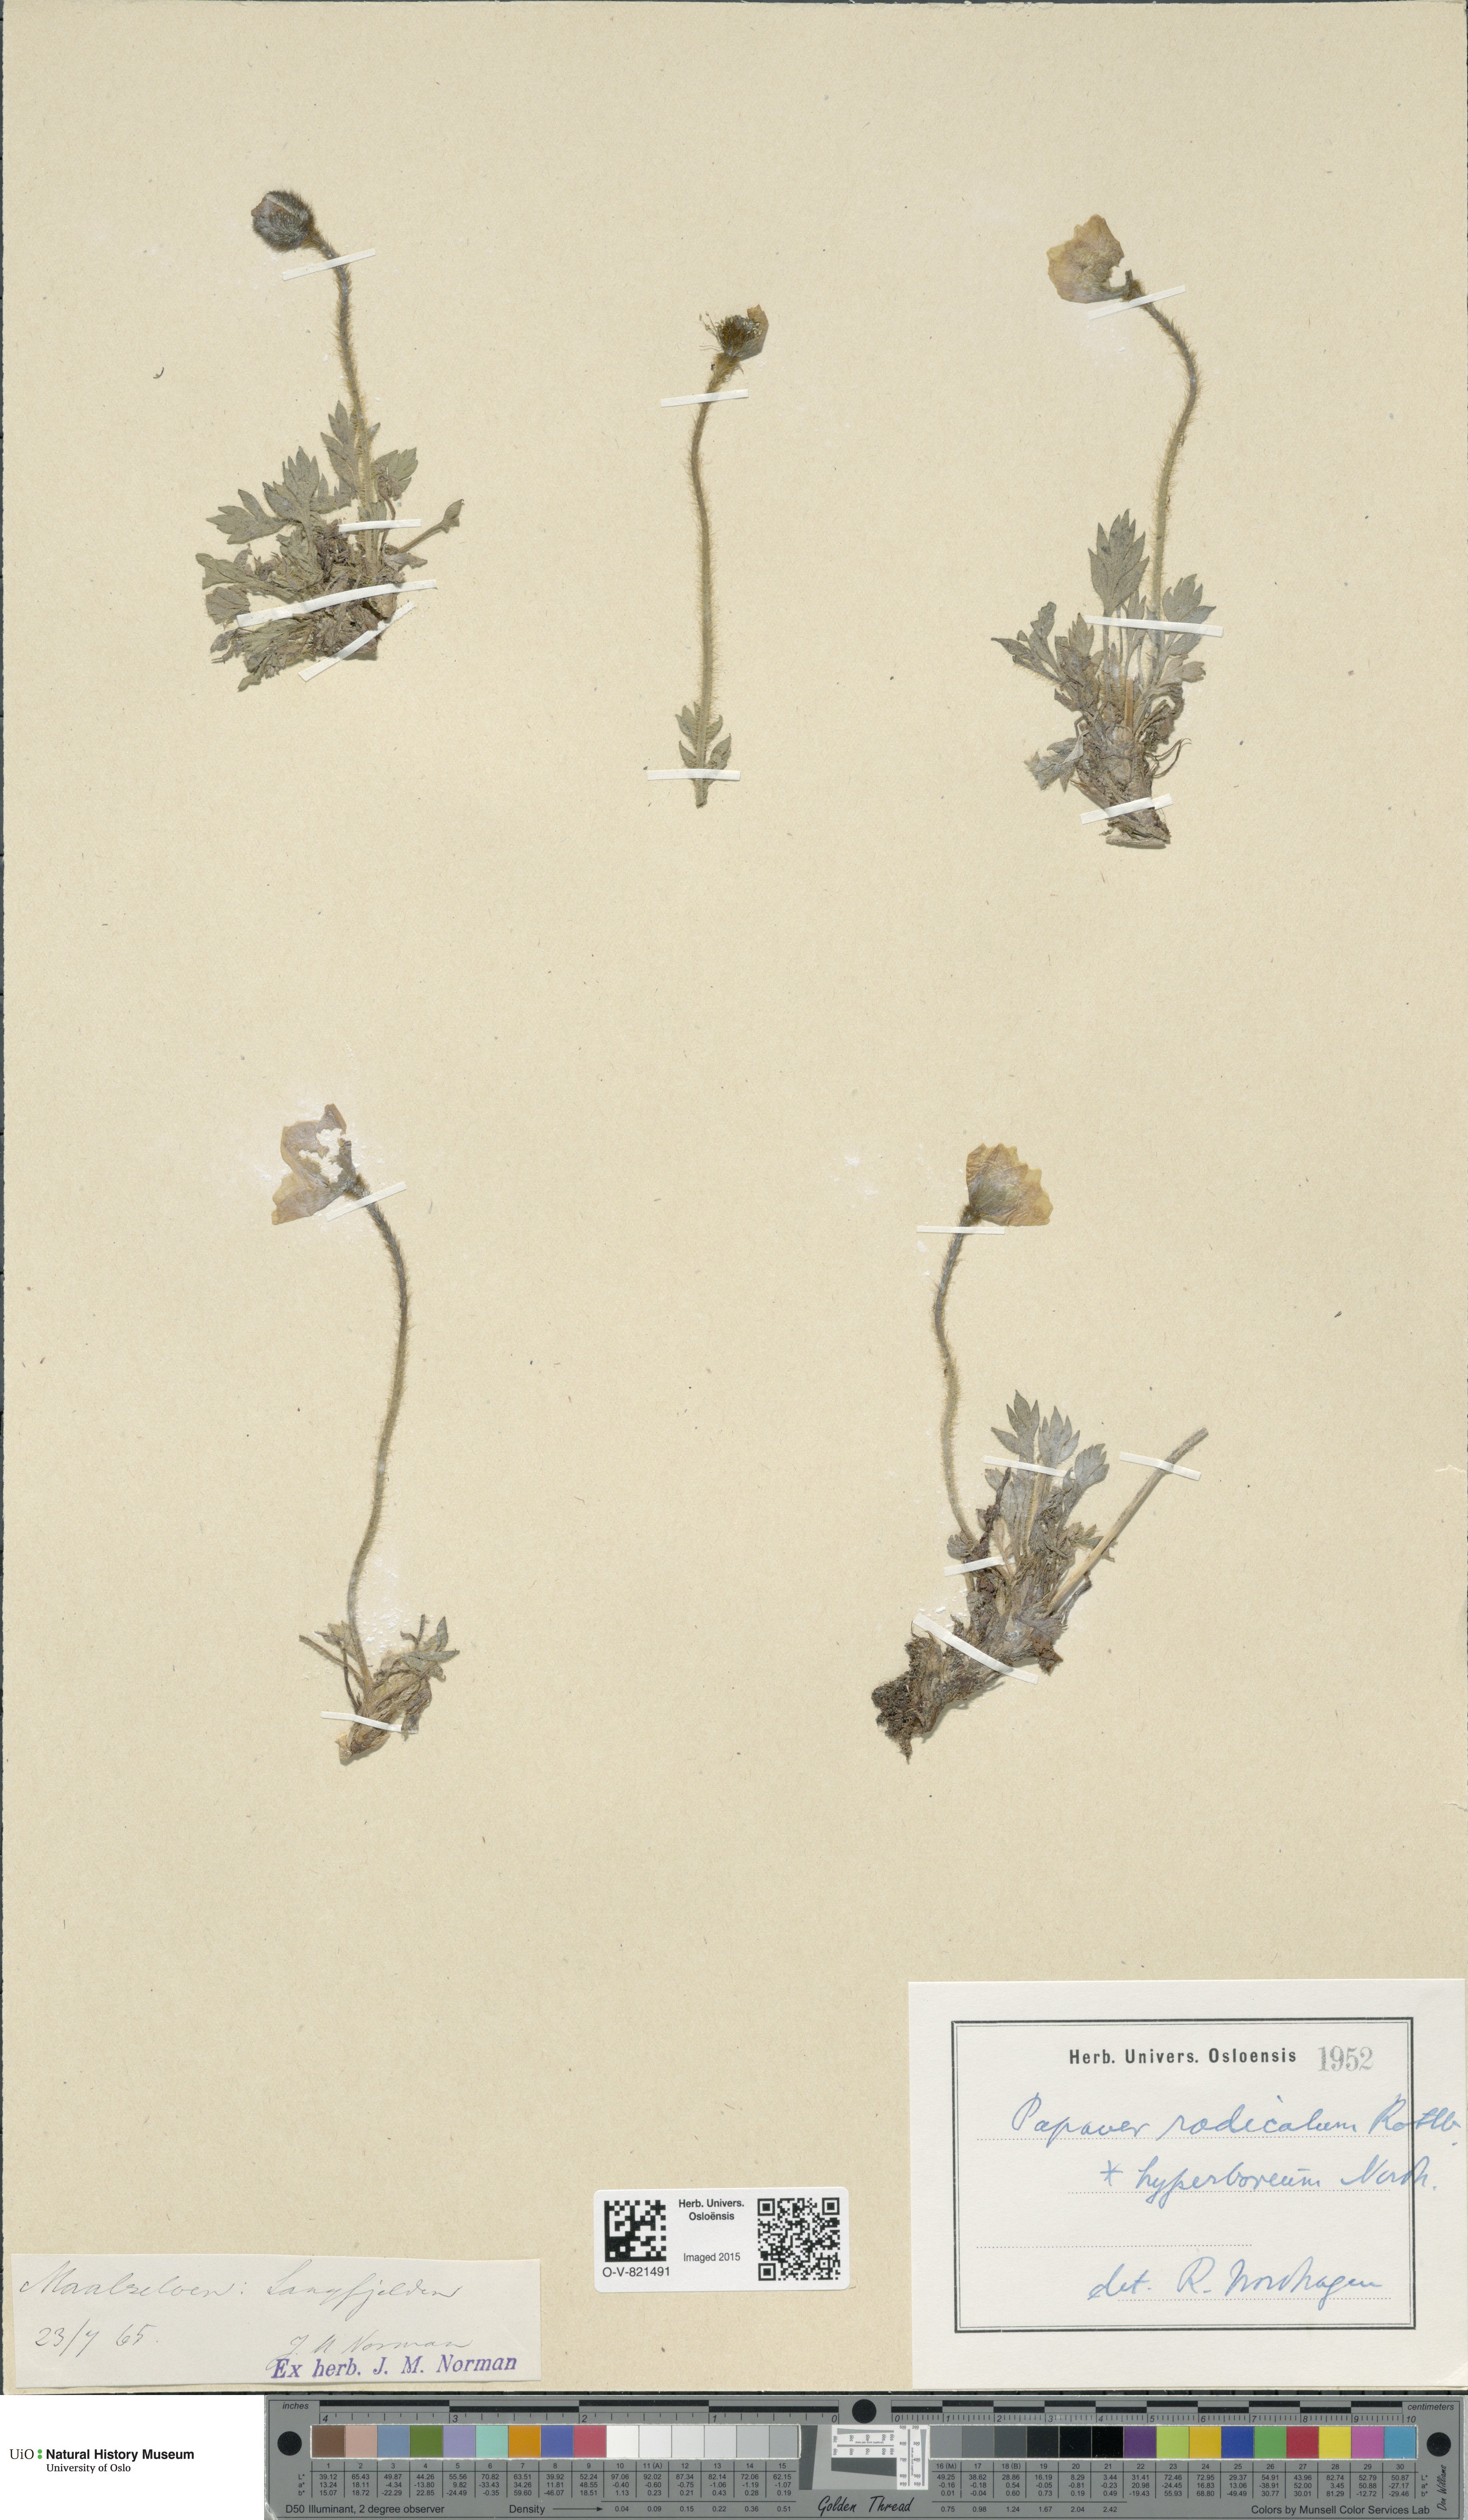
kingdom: Plantae
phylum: Tracheophyta
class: Magnoliopsida
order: Ranunculales
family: Papaveraceae
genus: Papaver
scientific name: Papaver radicatum
